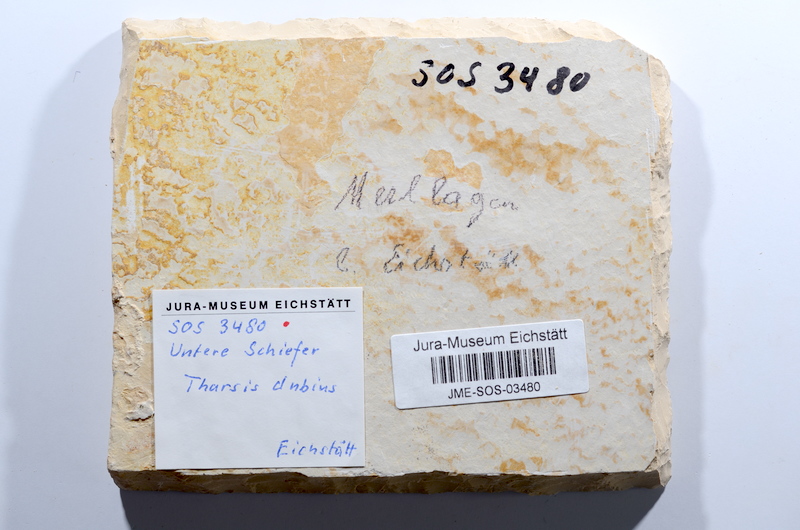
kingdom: Animalia
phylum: Chordata
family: Ascalaboidae
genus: Tharsis
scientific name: Tharsis dubius
